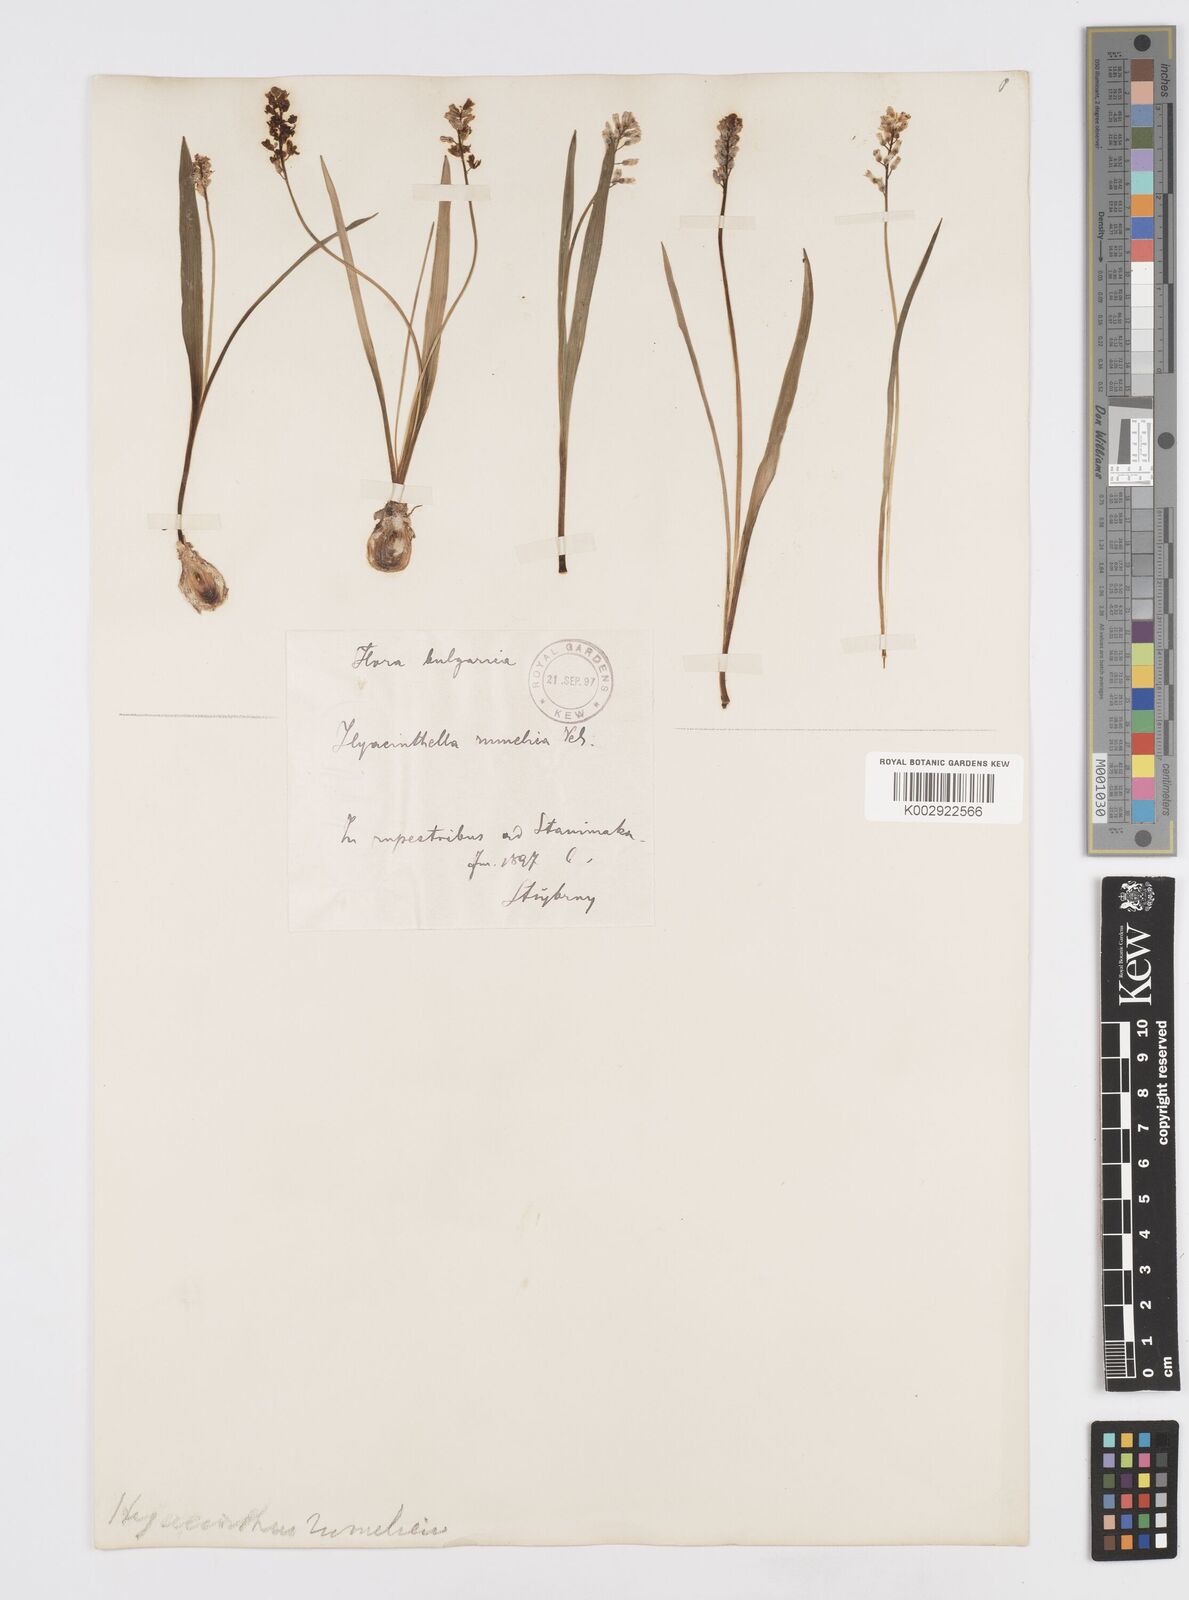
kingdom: Plantae
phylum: Tracheophyta
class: Liliopsida
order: Asparagales
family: Asparagaceae
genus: Hyacinthella
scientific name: Hyacinthella leucophaea
